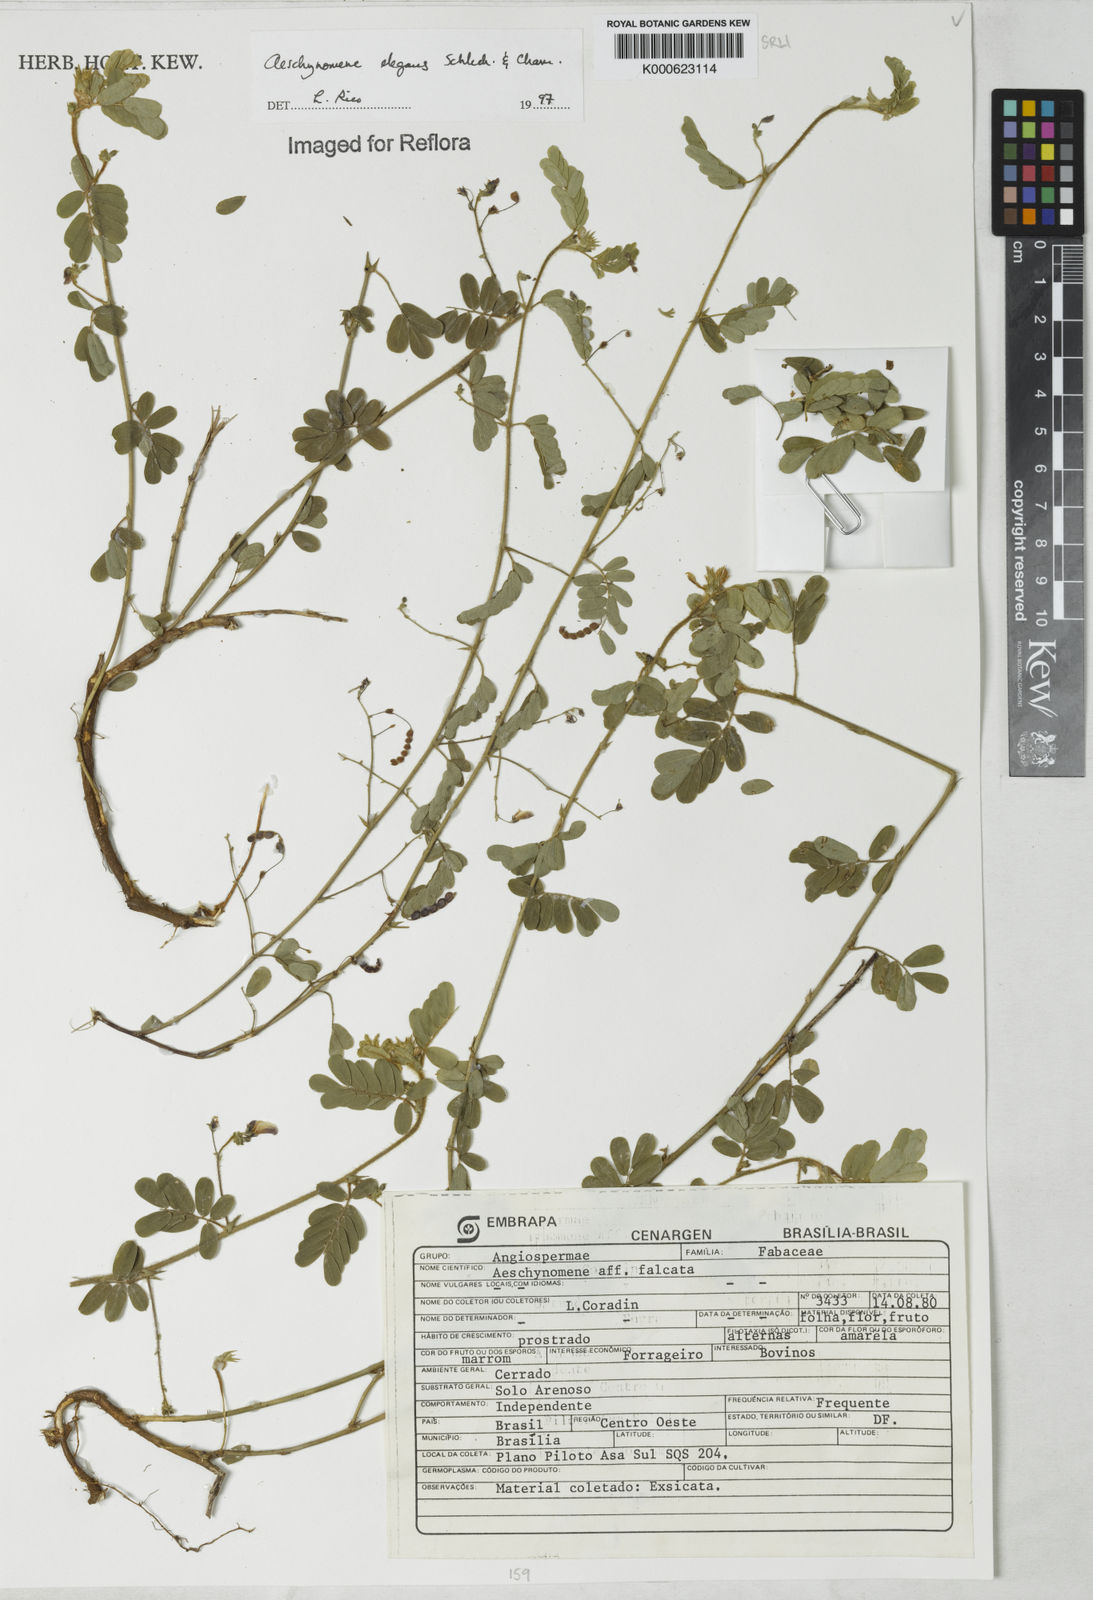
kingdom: Plantae
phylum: Tracheophyta
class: Magnoliopsida
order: Fabales
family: Fabaceae
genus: Ctenodon
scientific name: Ctenodon elegans
